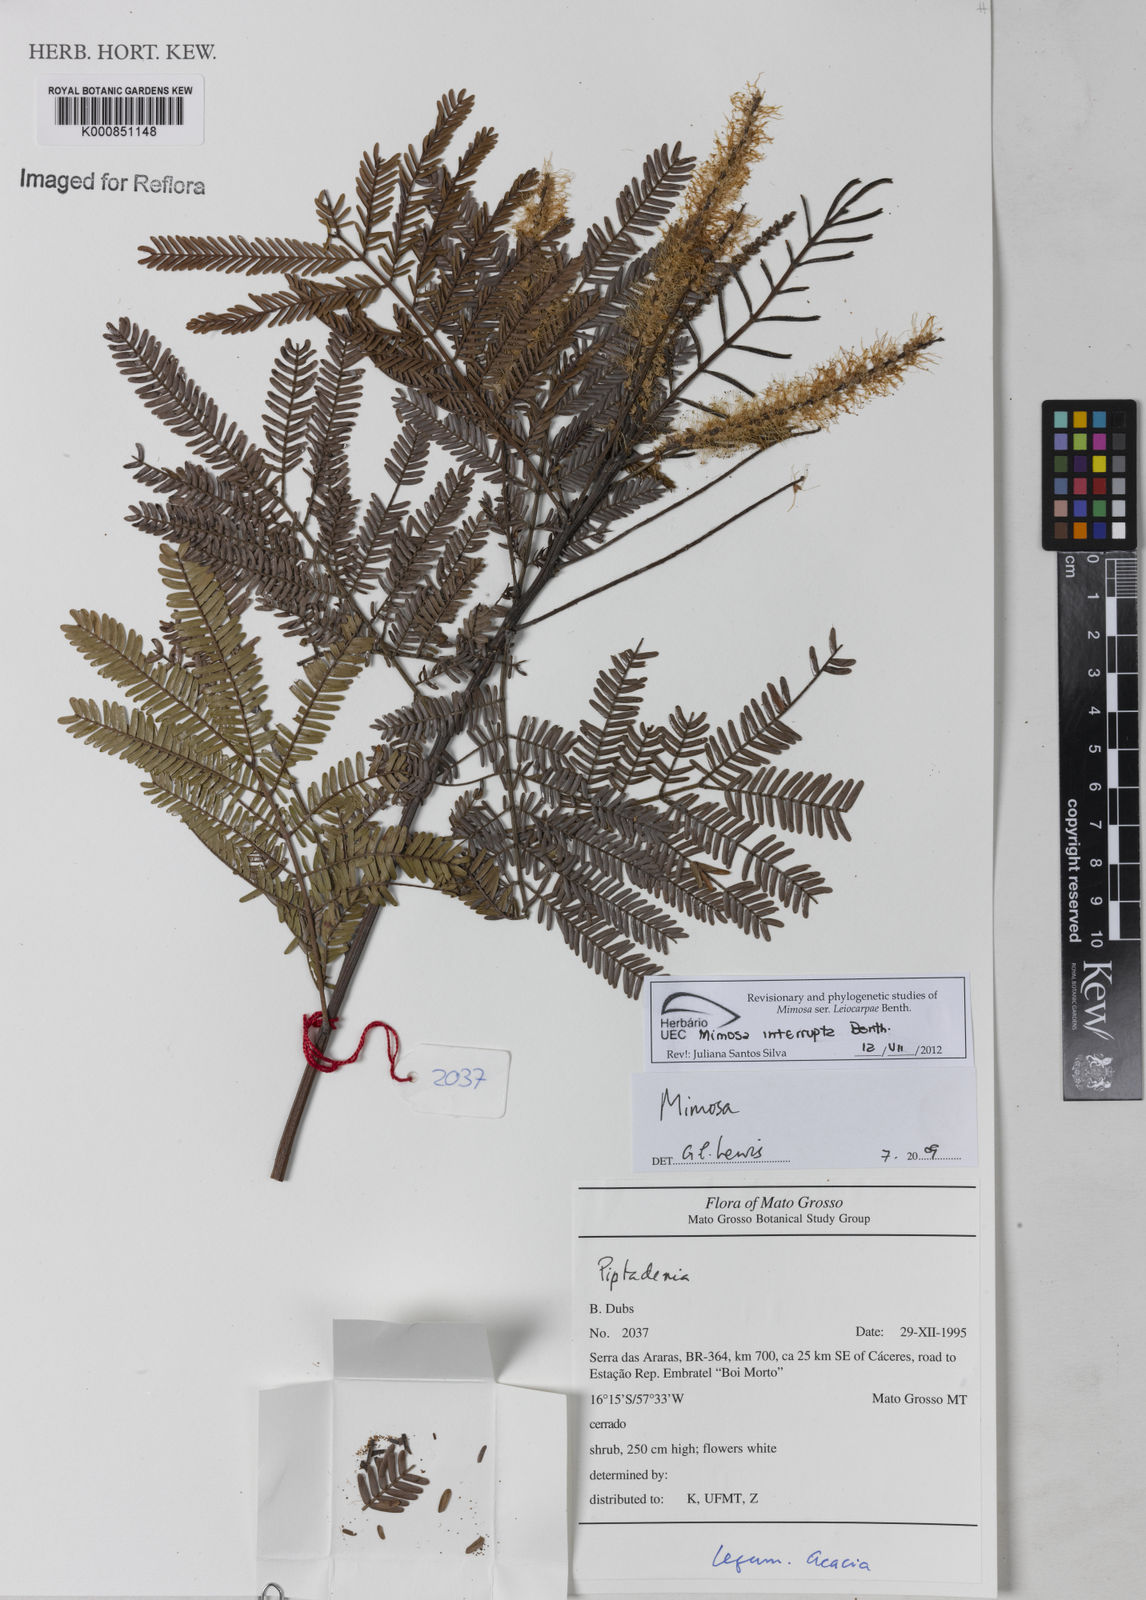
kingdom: Plantae
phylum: Tracheophyta
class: Magnoliopsida
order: Fabales
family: Fabaceae
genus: Mimosa
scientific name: Mimosa interrupta
